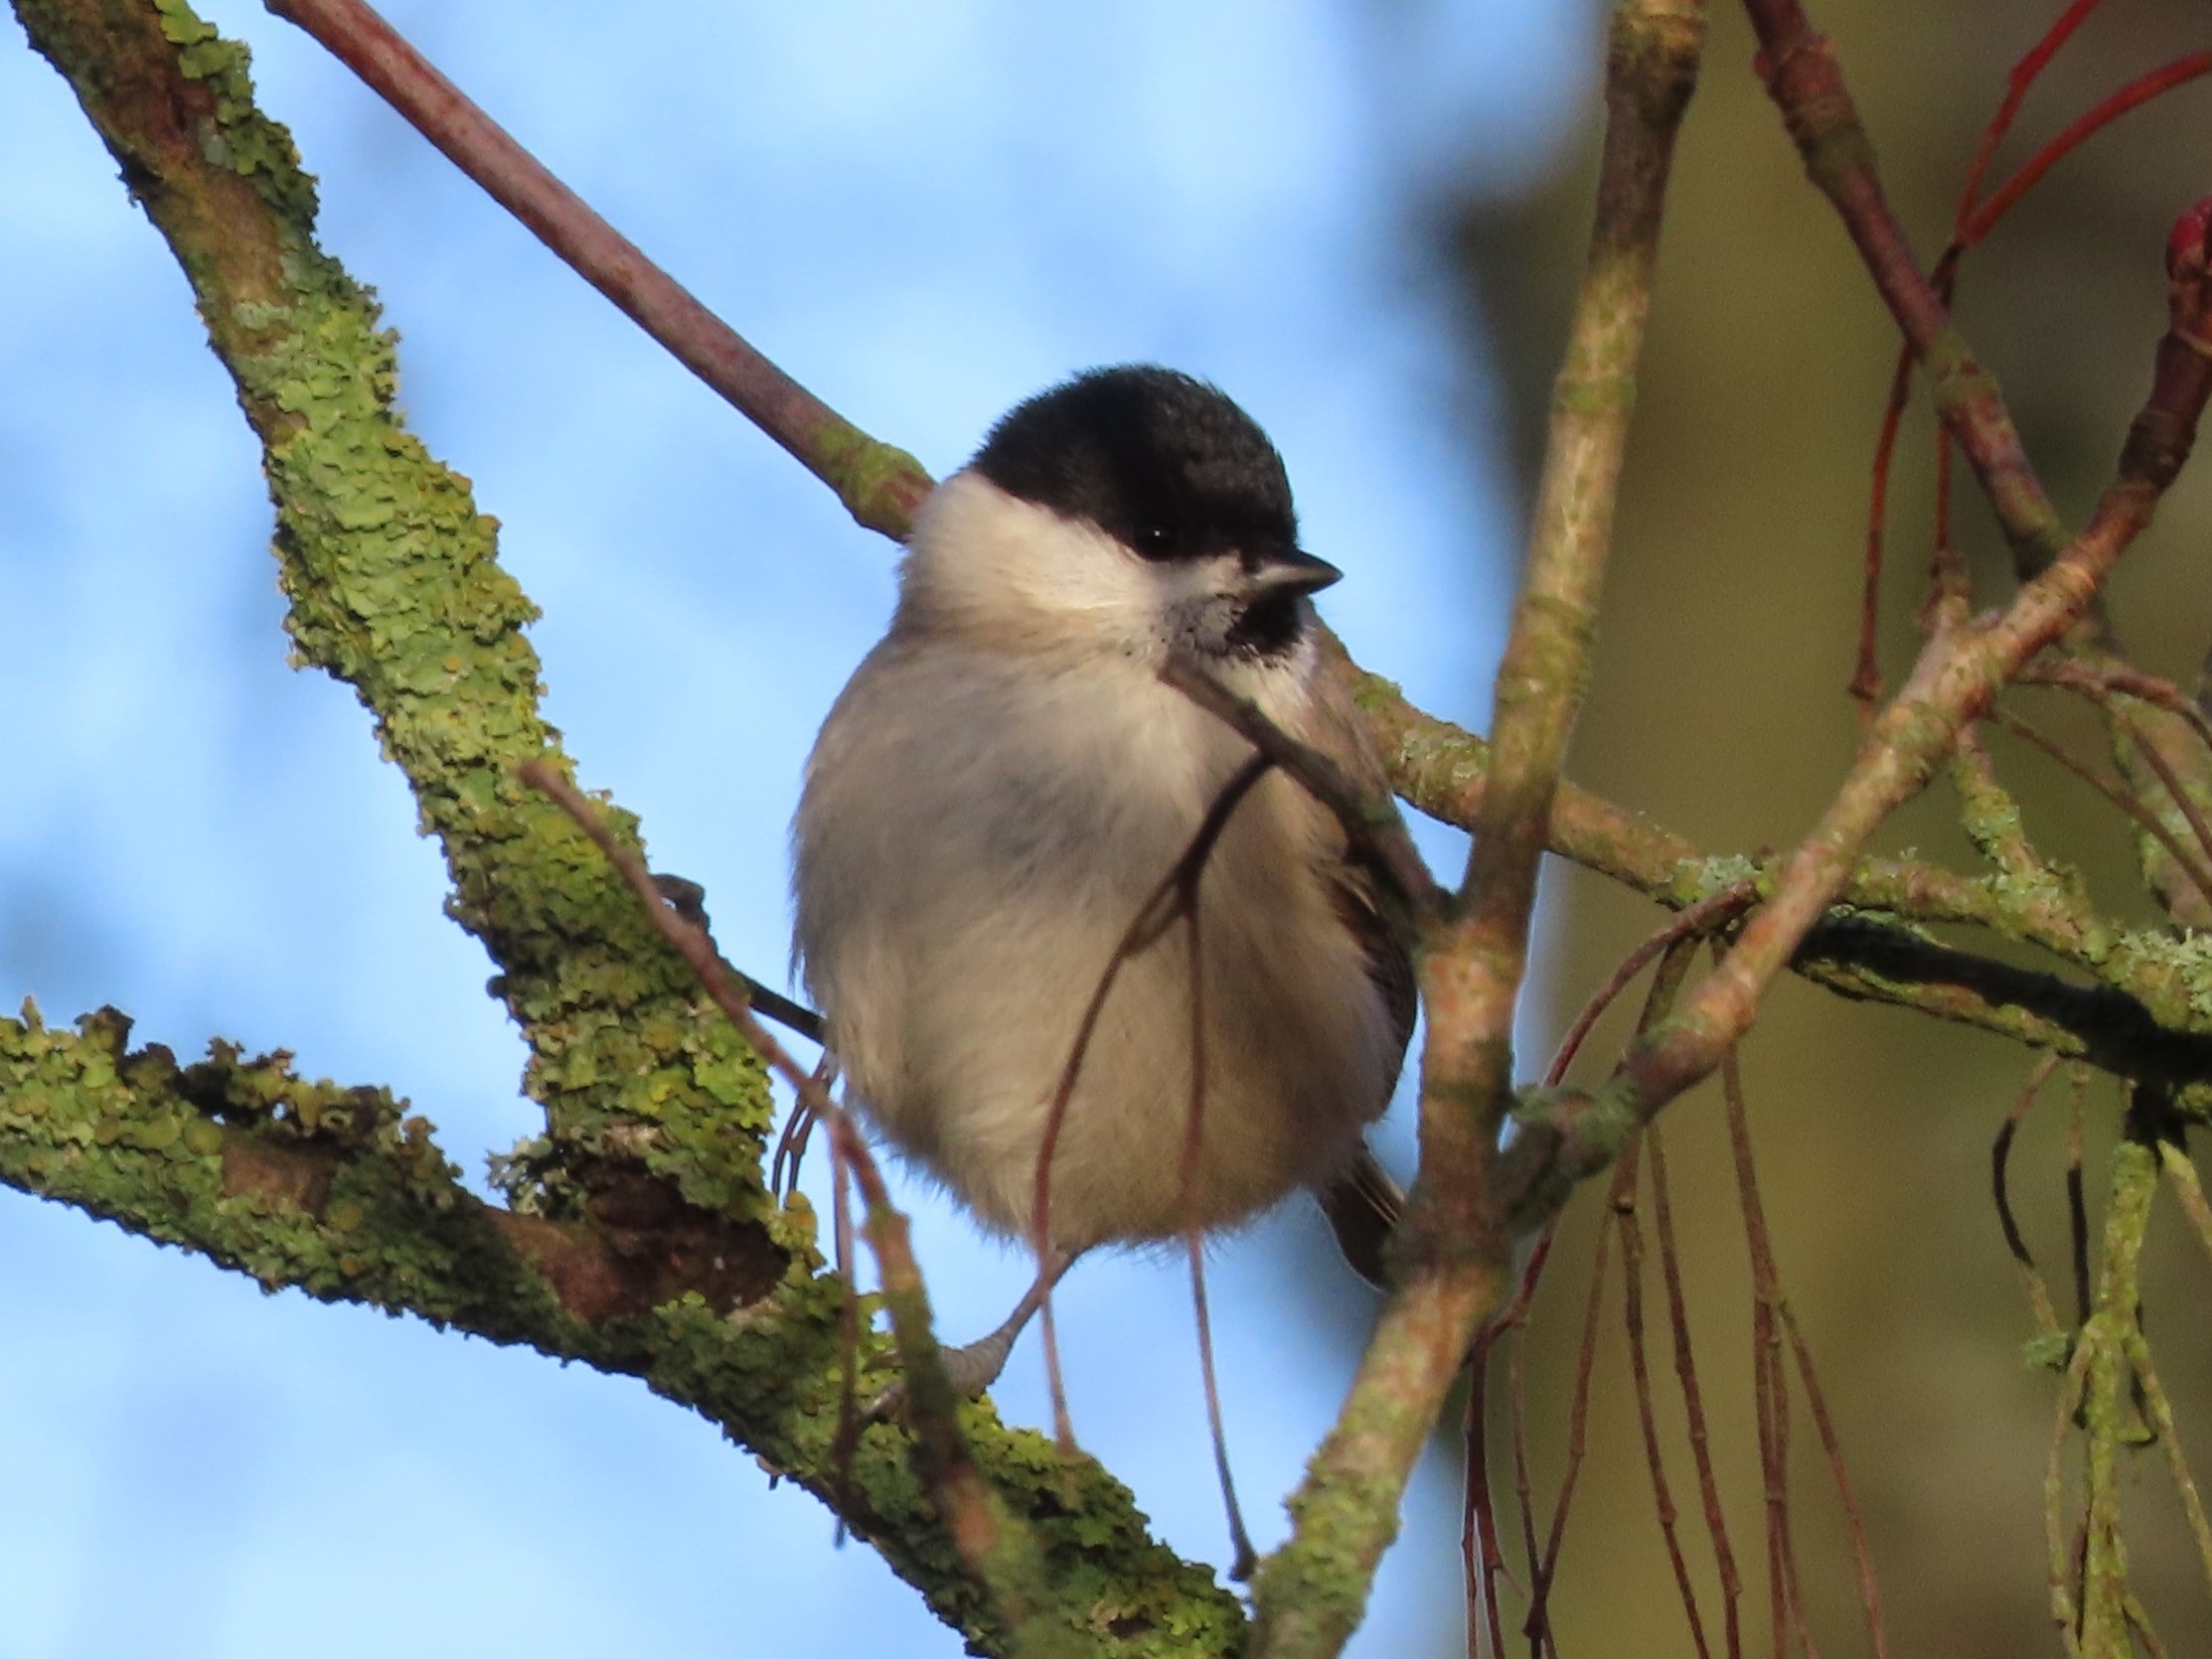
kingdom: Animalia
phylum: Chordata
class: Aves
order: Passeriformes
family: Paridae
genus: Poecile
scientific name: Poecile palustris
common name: Sumpmejse
